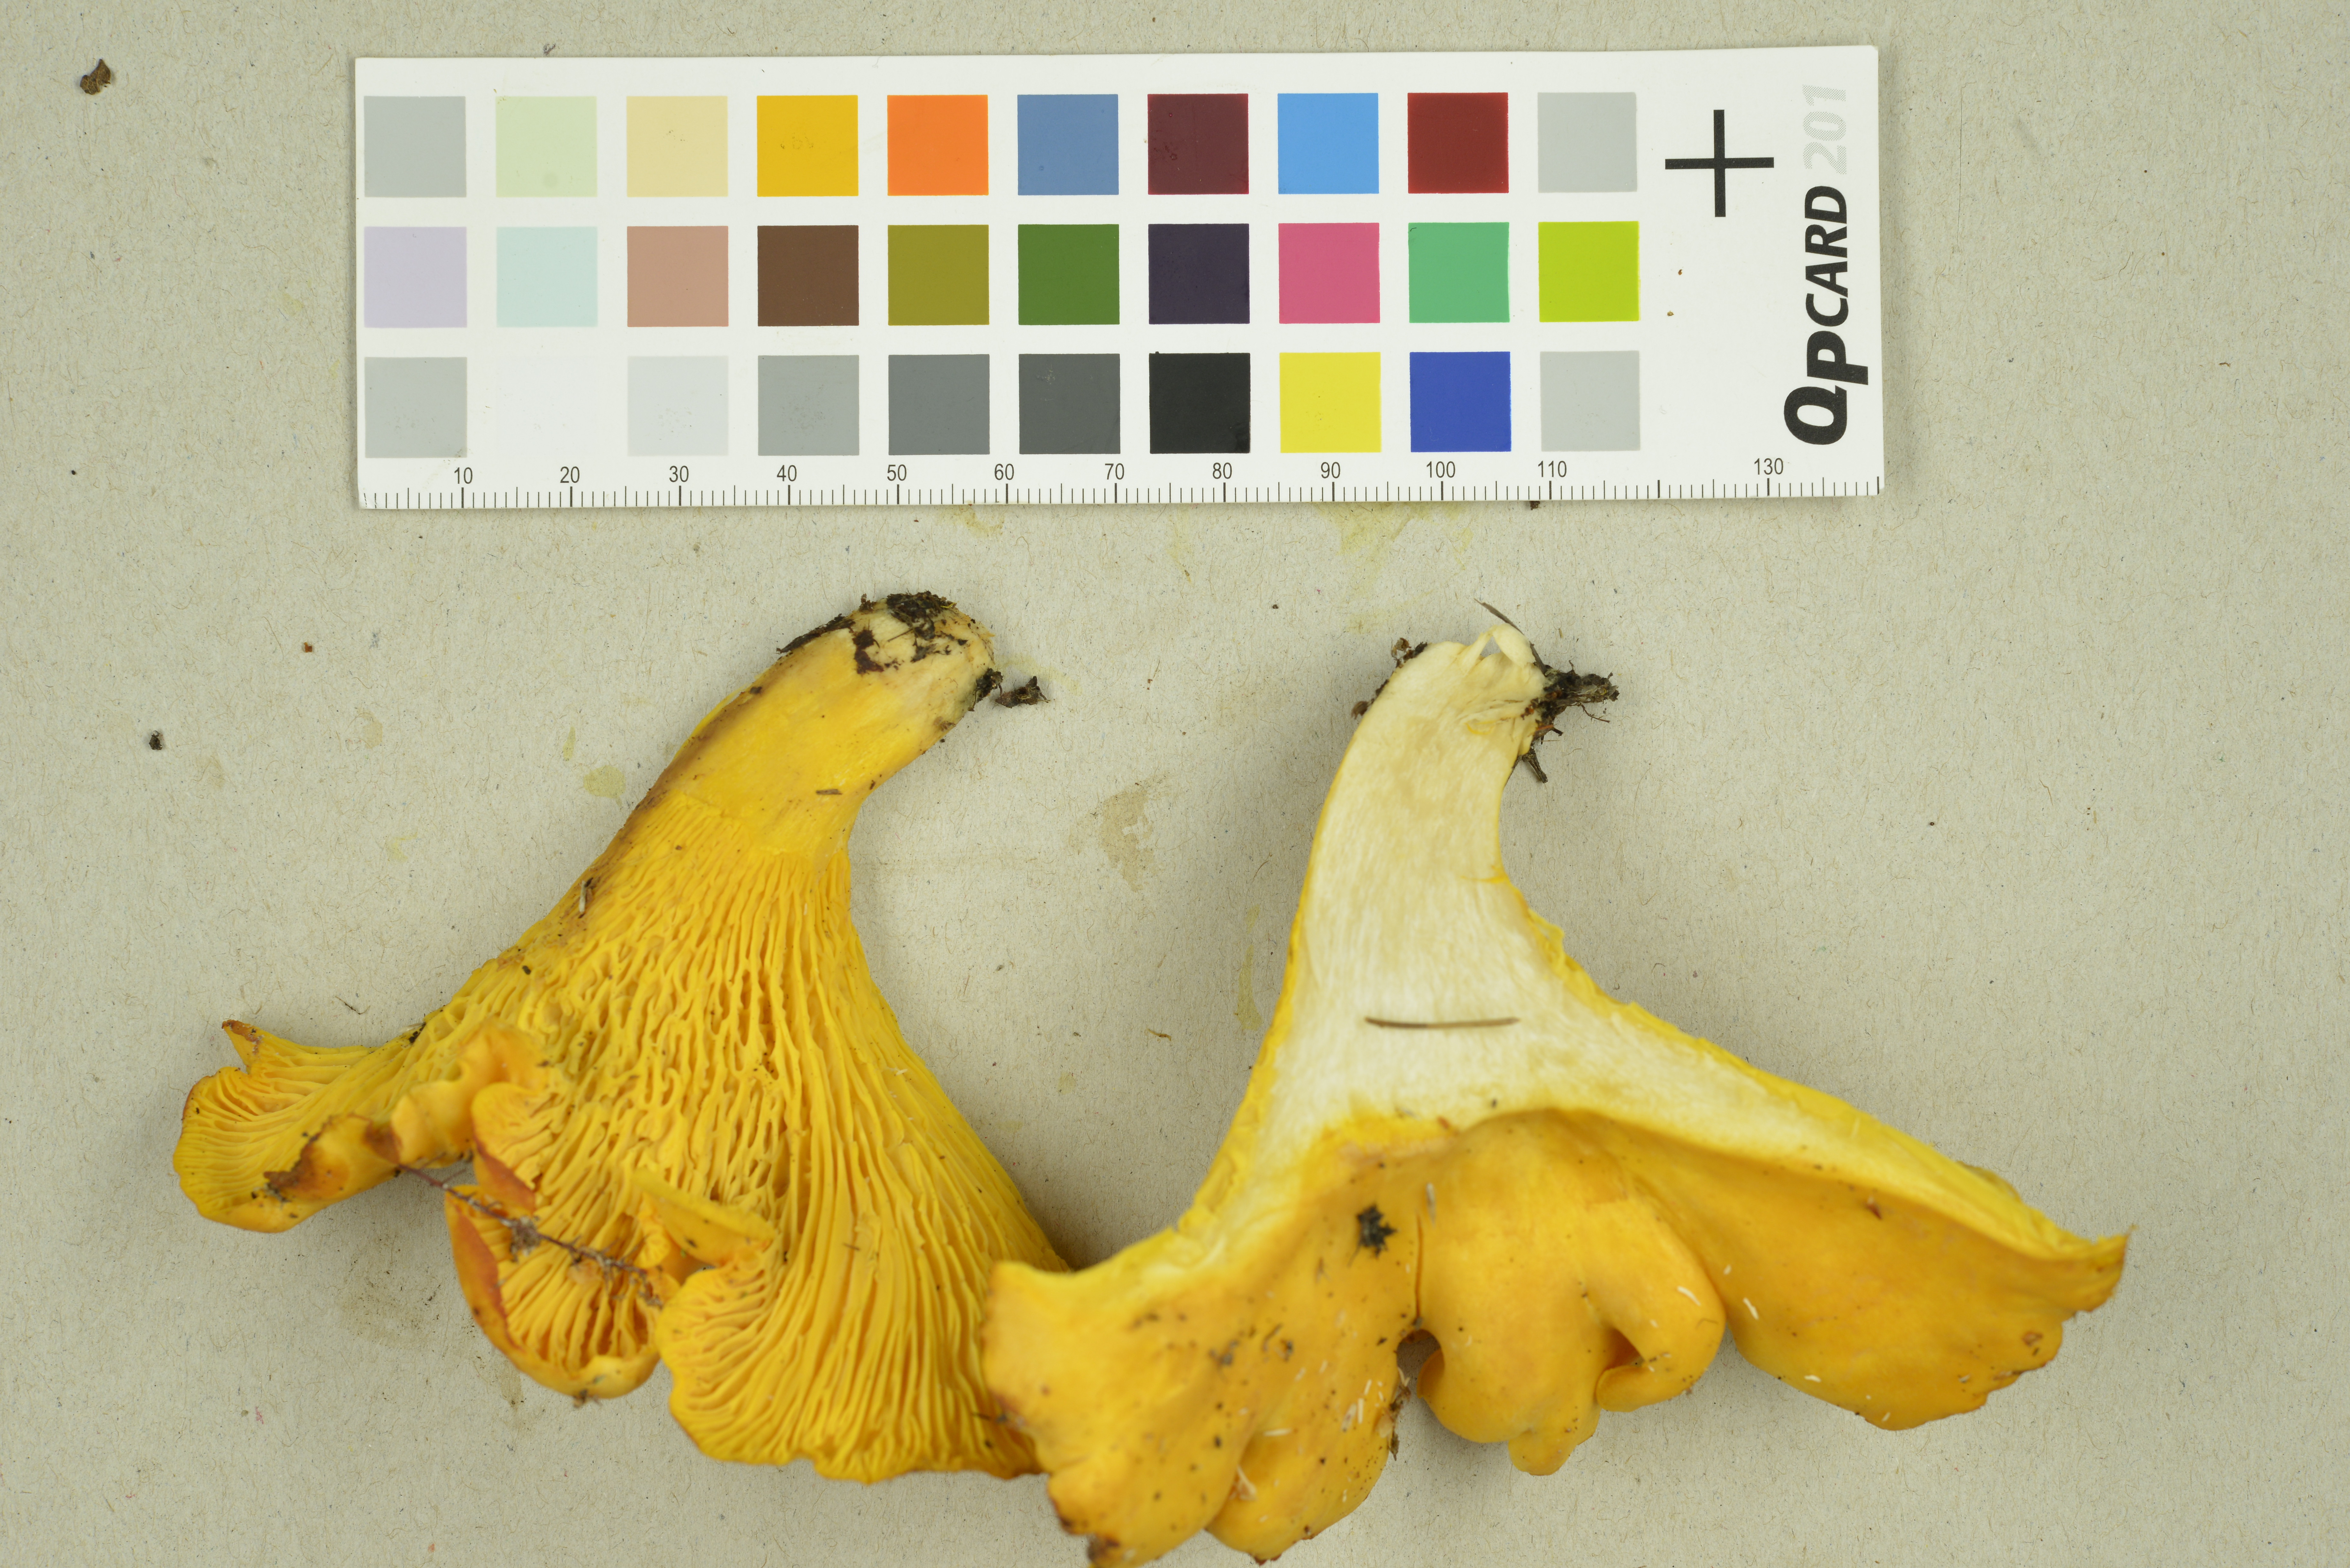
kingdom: Fungi
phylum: Basidiomycota
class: Agaricomycetes
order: Cantharellales
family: Hydnaceae
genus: Hydnum
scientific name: Hydnum repandum
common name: Wood hedgehog
